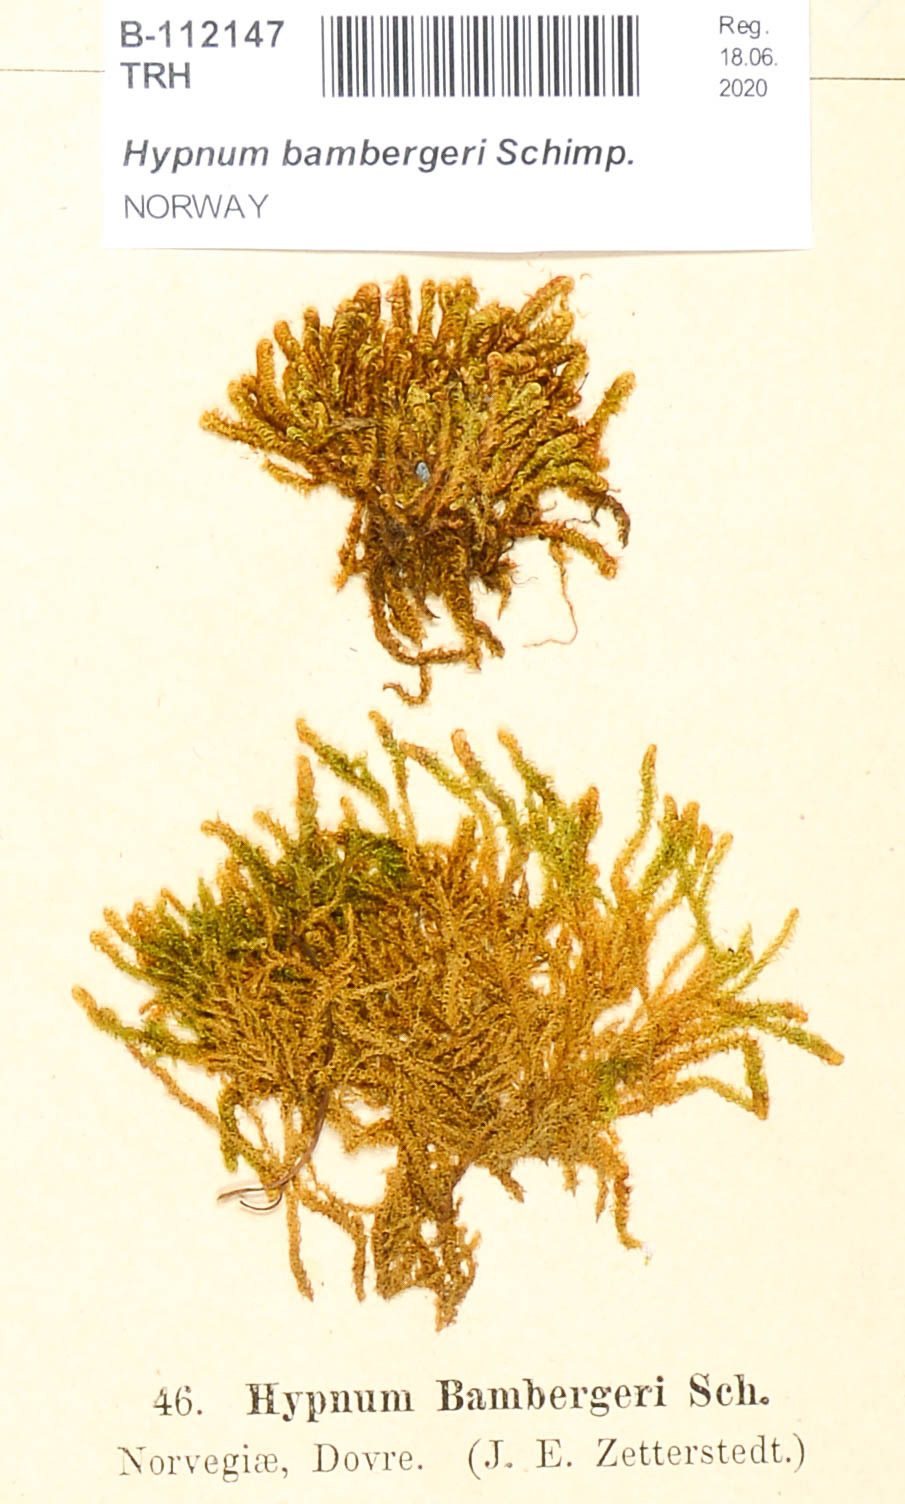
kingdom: Plantae
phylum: Bryophyta
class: Bryopsida
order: Hypnales
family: Amblystegiaceae
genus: Campylium
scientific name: Campylium bambergeri
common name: Golden plait-moss
